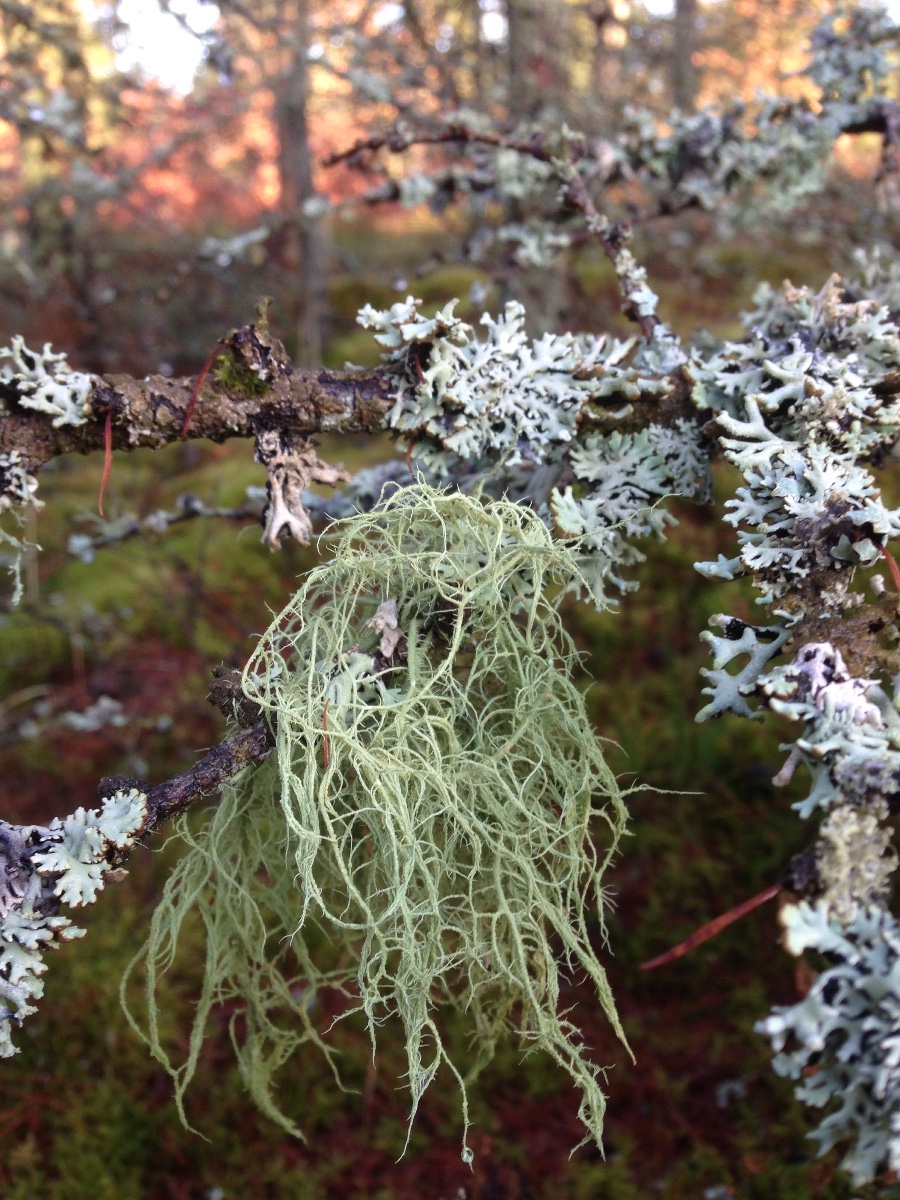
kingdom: Fungi
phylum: Ascomycota
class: Lecanoromycetes
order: Lecanorales
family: Parmeliaceae
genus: Usnea
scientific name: Usnea dasypoga
